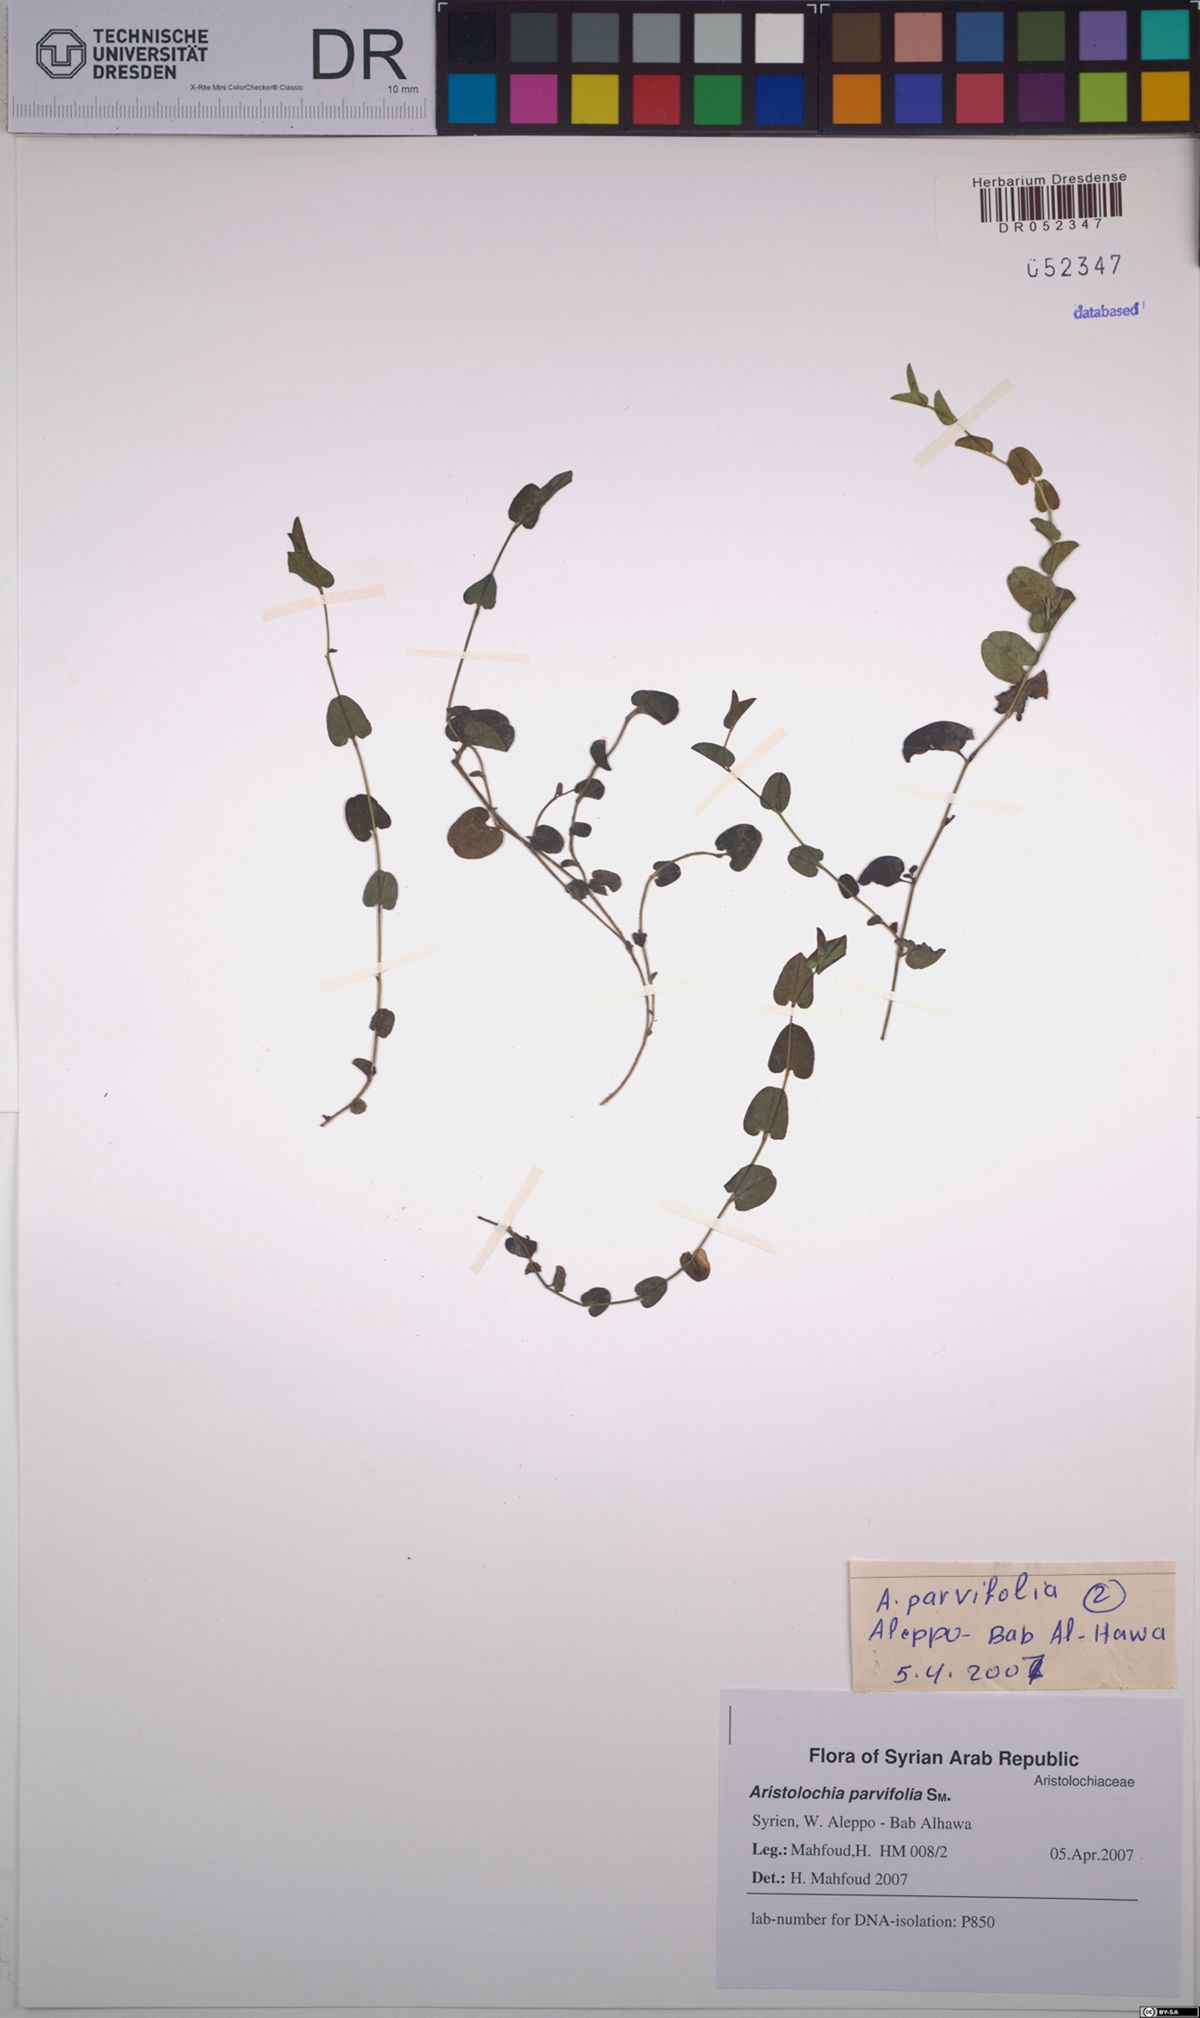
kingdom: Plantae
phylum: Tracheophyta
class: Magnoliopsida
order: Piperales
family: Aristolochiaceae
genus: Aristolochia
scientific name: Aristolochia parvifolia
